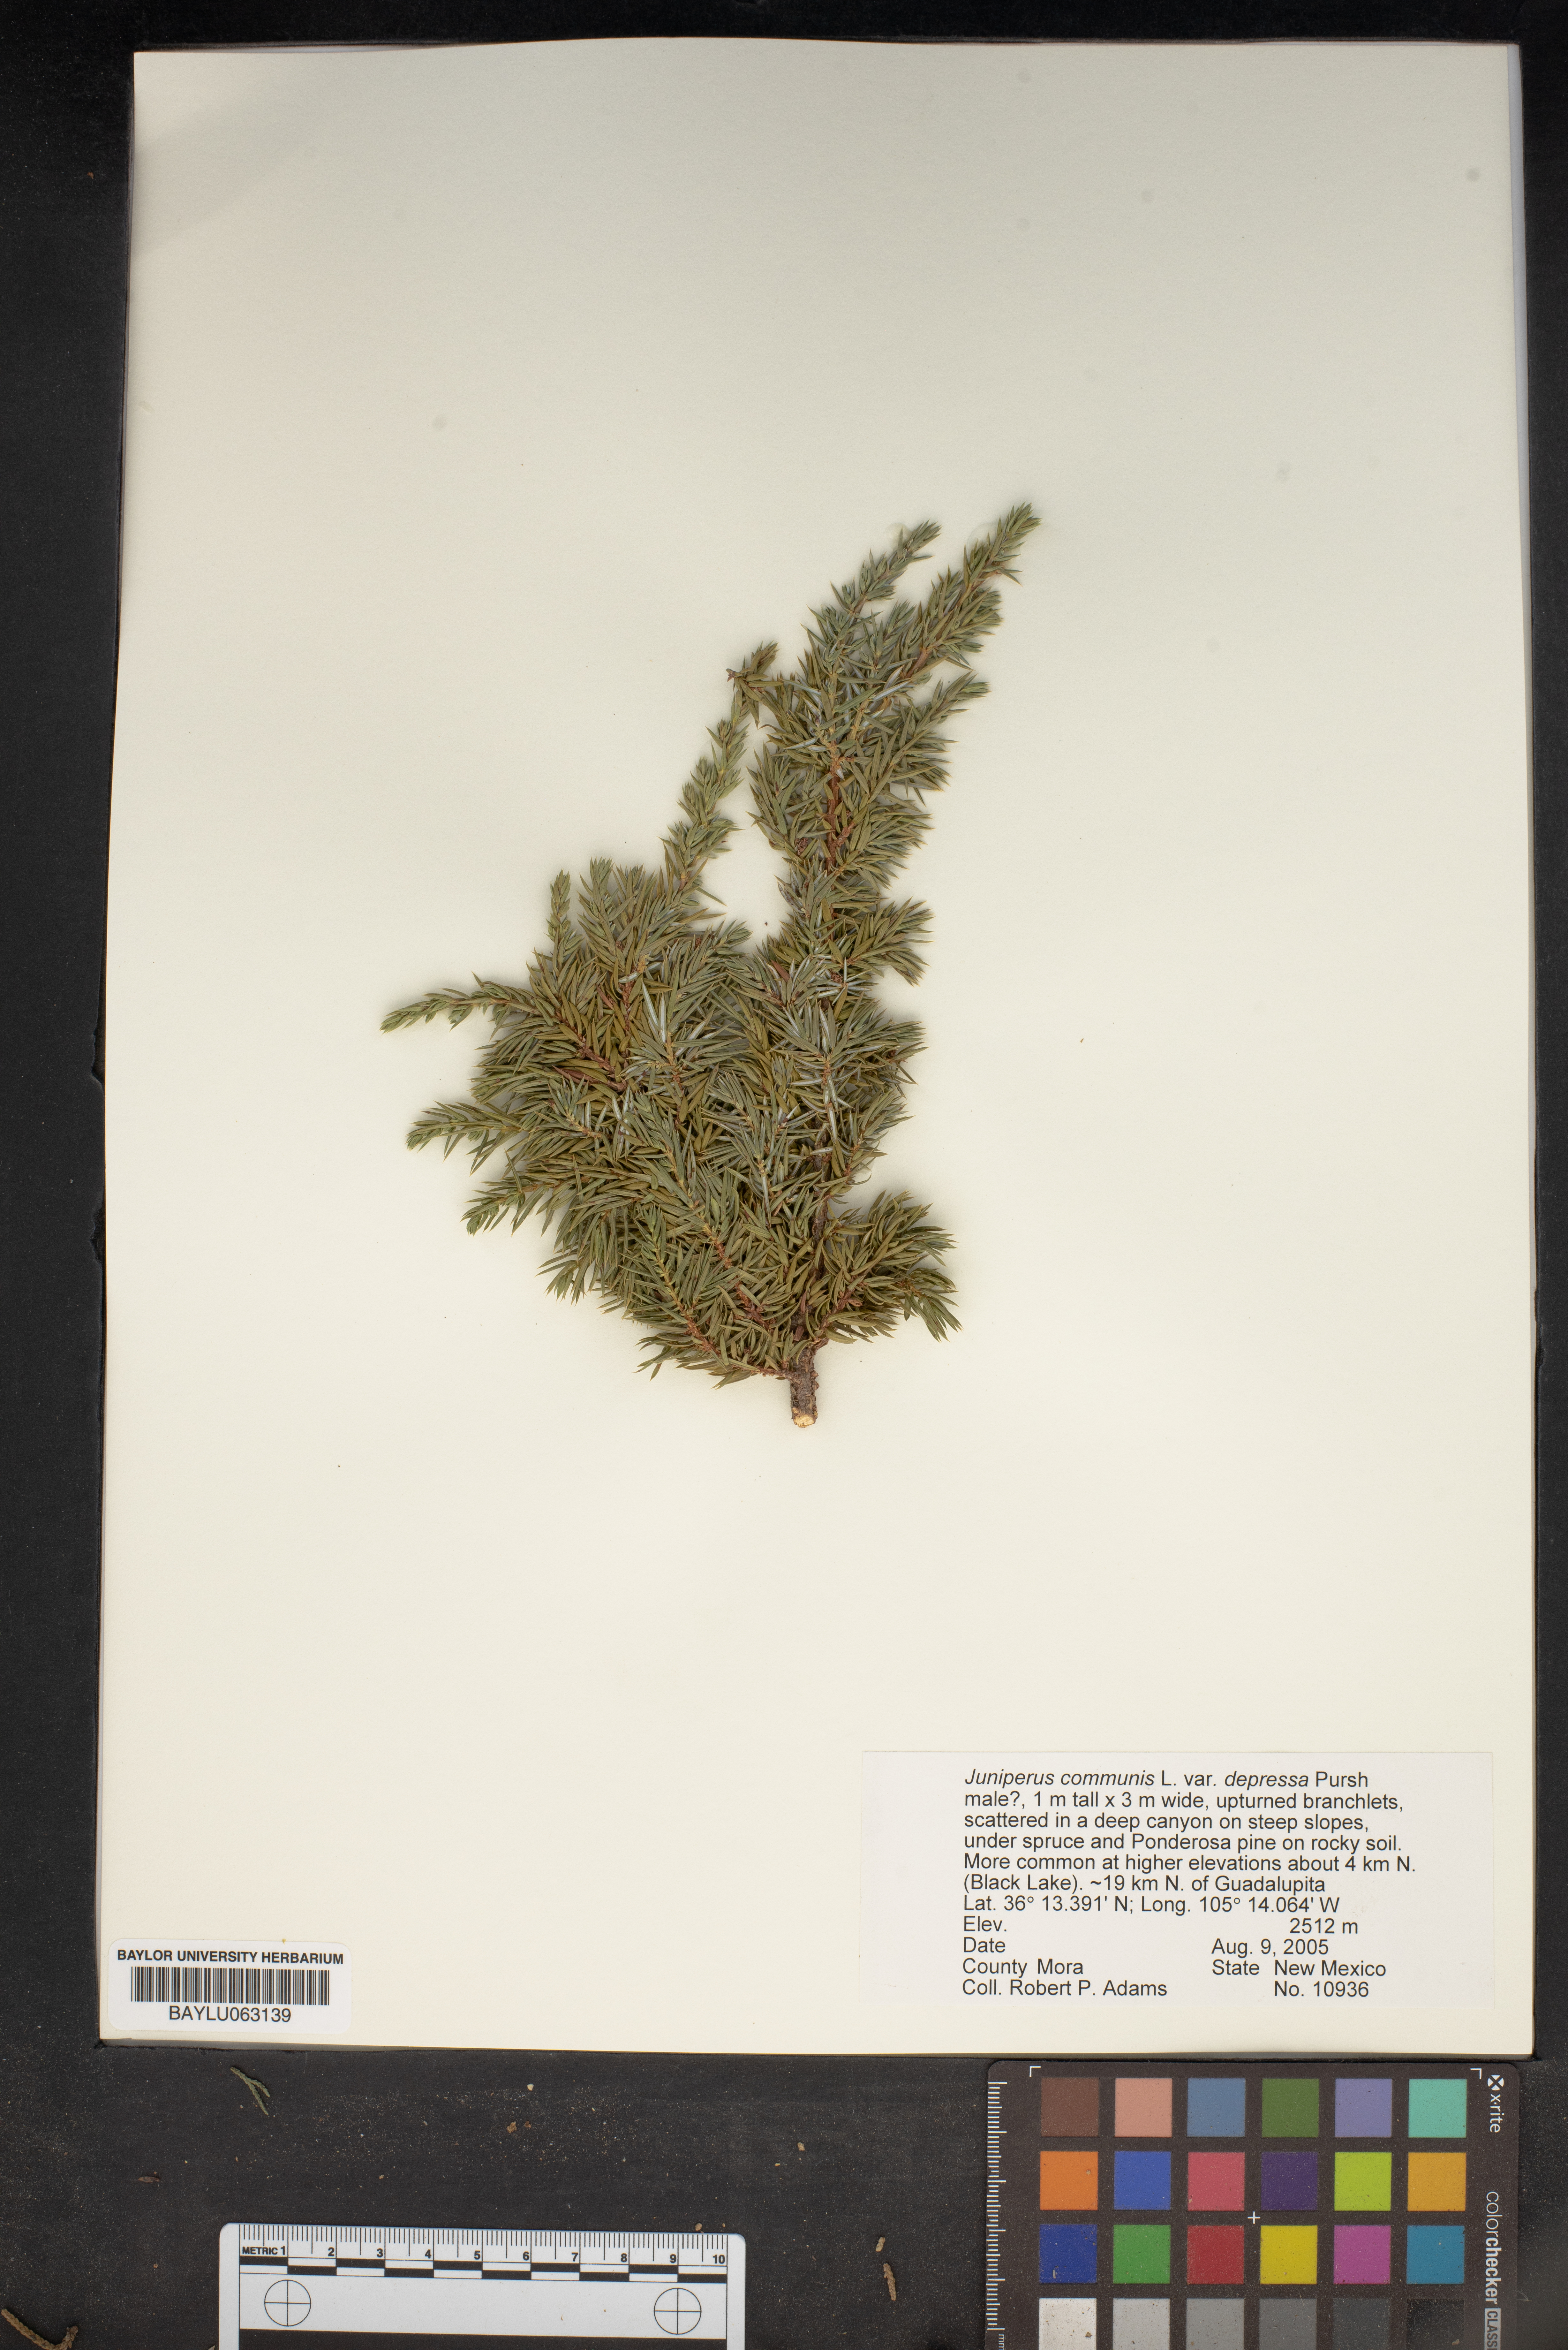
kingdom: Plantae
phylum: Tracheophyta
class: Pinopsida
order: Pinales
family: Cupressaceae
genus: Juniperus
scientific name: Juniperus communis
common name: Common juniper
